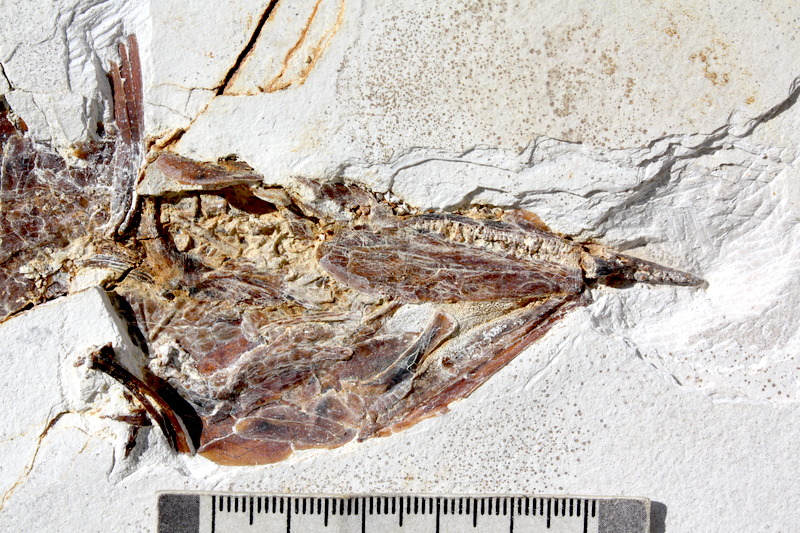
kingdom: Animalia
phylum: Chordata
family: Aspidorhynchidae
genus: Aspidorhynchus
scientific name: Aspidorhynchus sanzenbacheri
